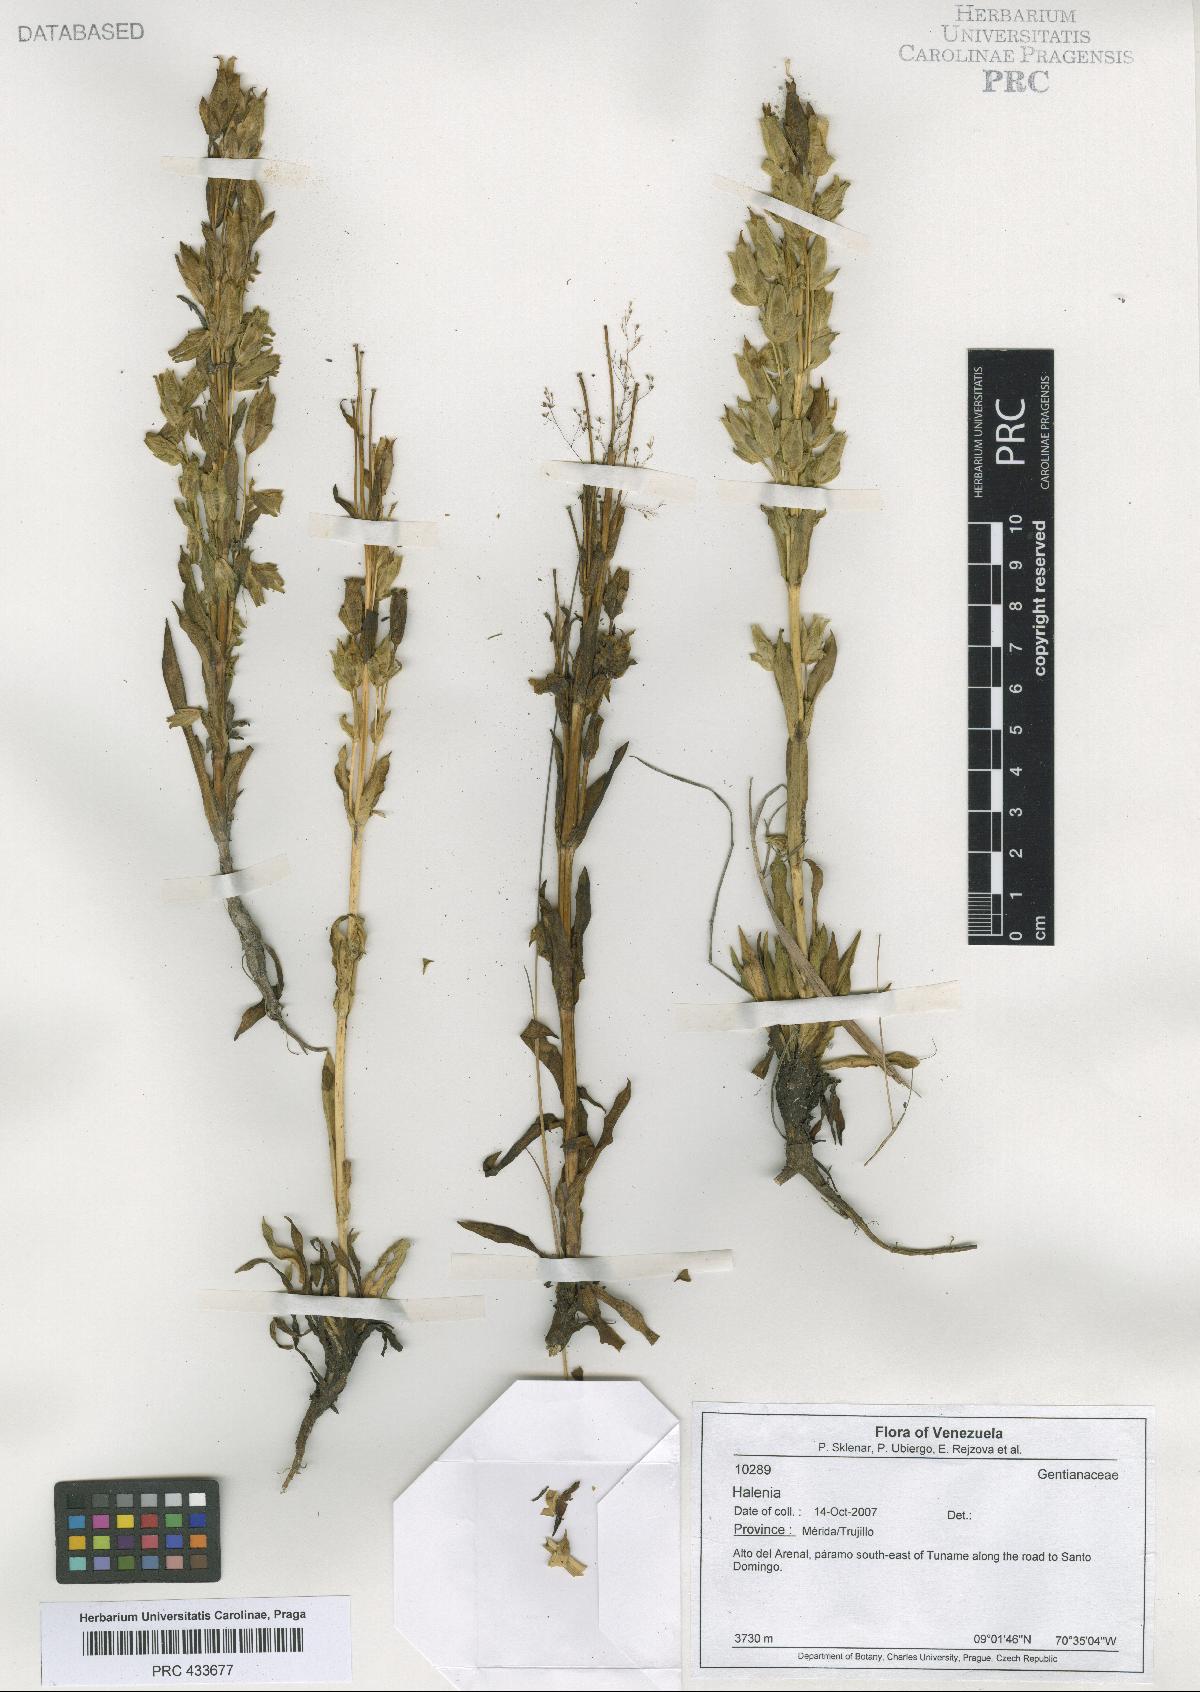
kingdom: Plantae
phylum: Tracheophyta
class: Magnoliopsida
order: Gentianales
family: Gentianaceae
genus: Halenia
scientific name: Halenia
